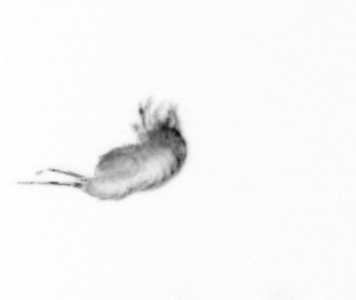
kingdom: Animalia
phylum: Arthropoda
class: Copepoda
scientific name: Copepoda
